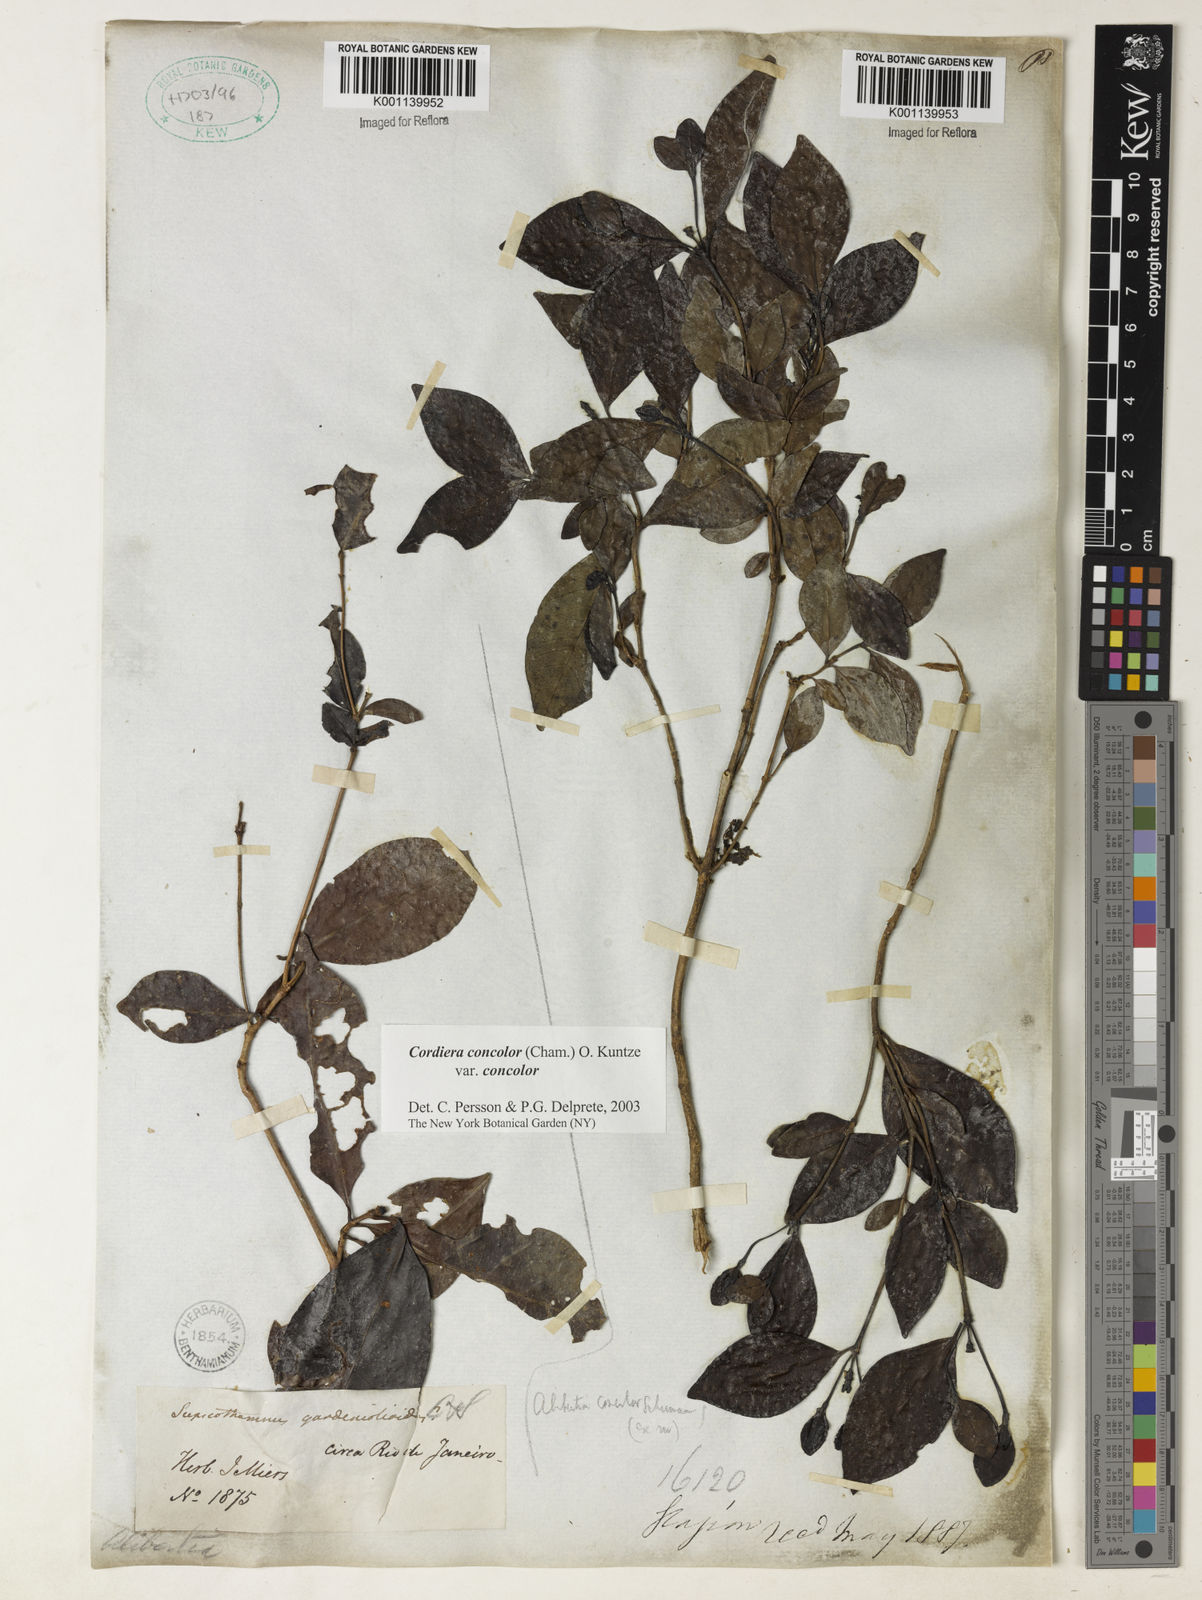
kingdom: Plantae
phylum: Tracheophyta
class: Magnoliopsida
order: Gentianales
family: Rubiaceae
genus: Cordiera
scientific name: Cordiera concolor
